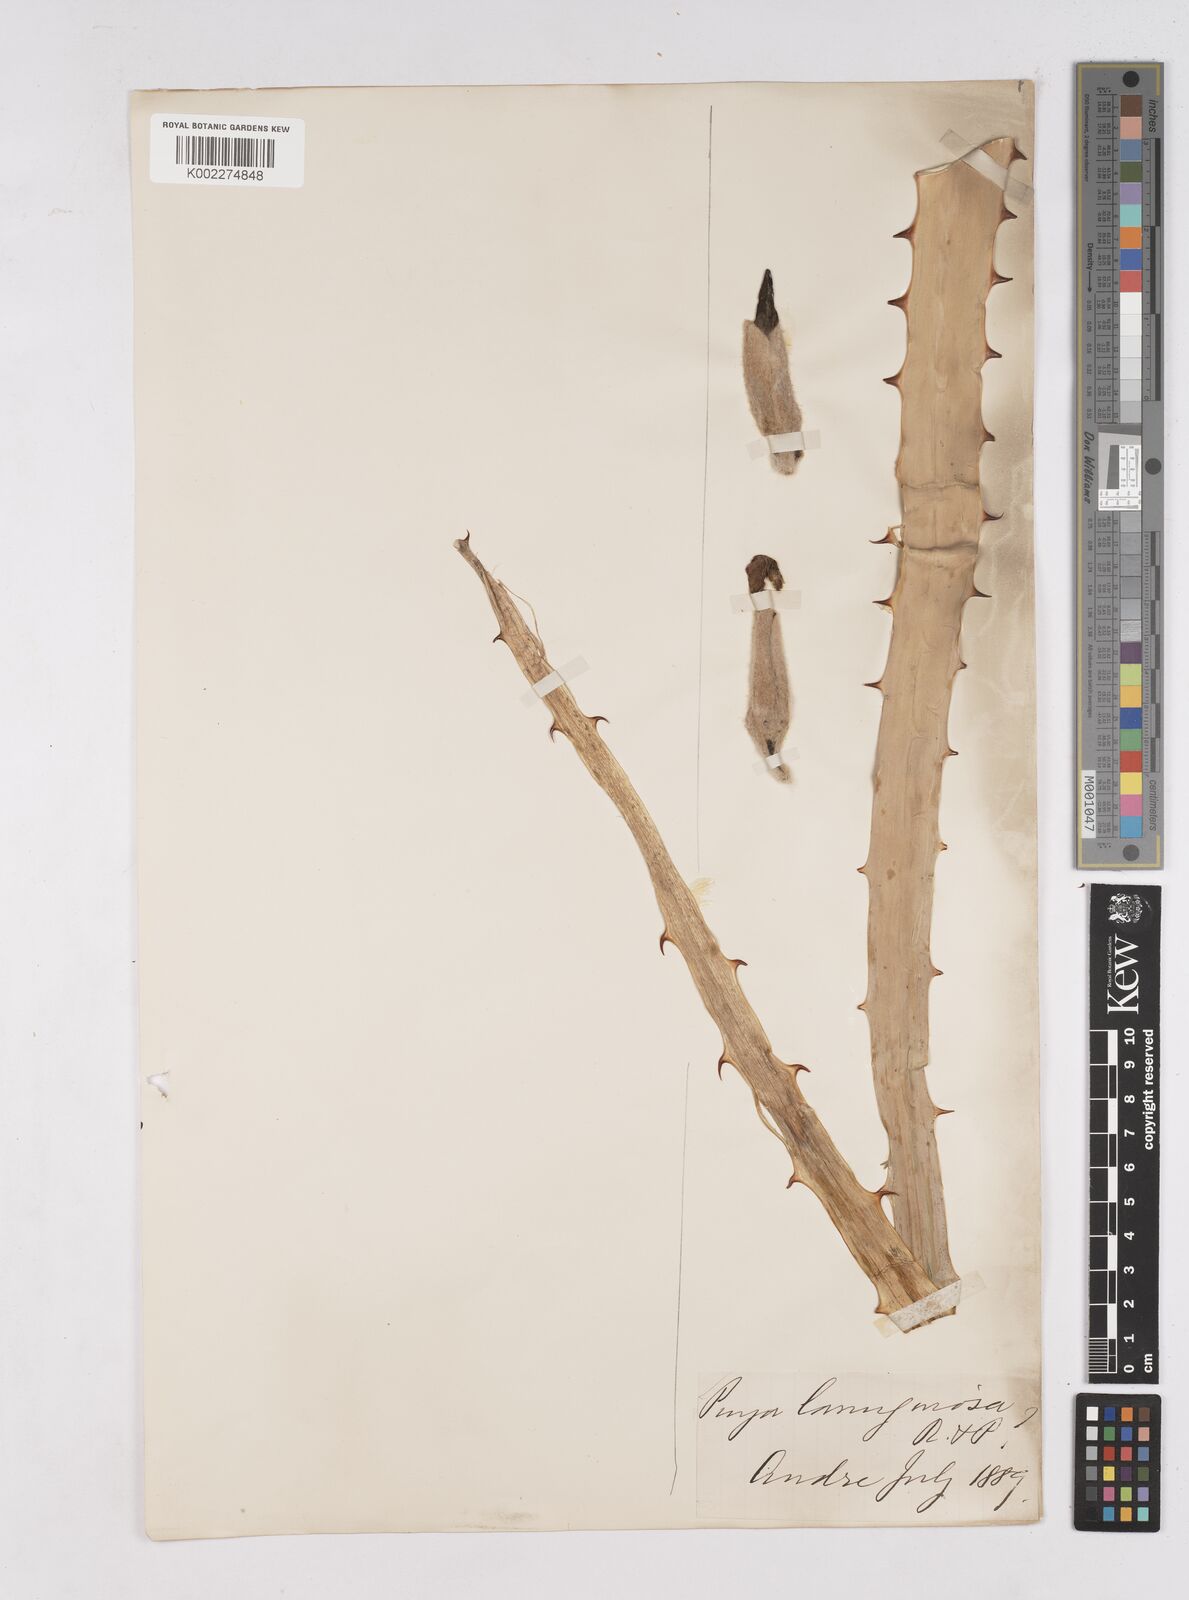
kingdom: Plantae
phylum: Tracheophyta
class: Liliopsida
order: Poales
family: Bromeliaceae
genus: Puya
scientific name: Puya lanuginosa
